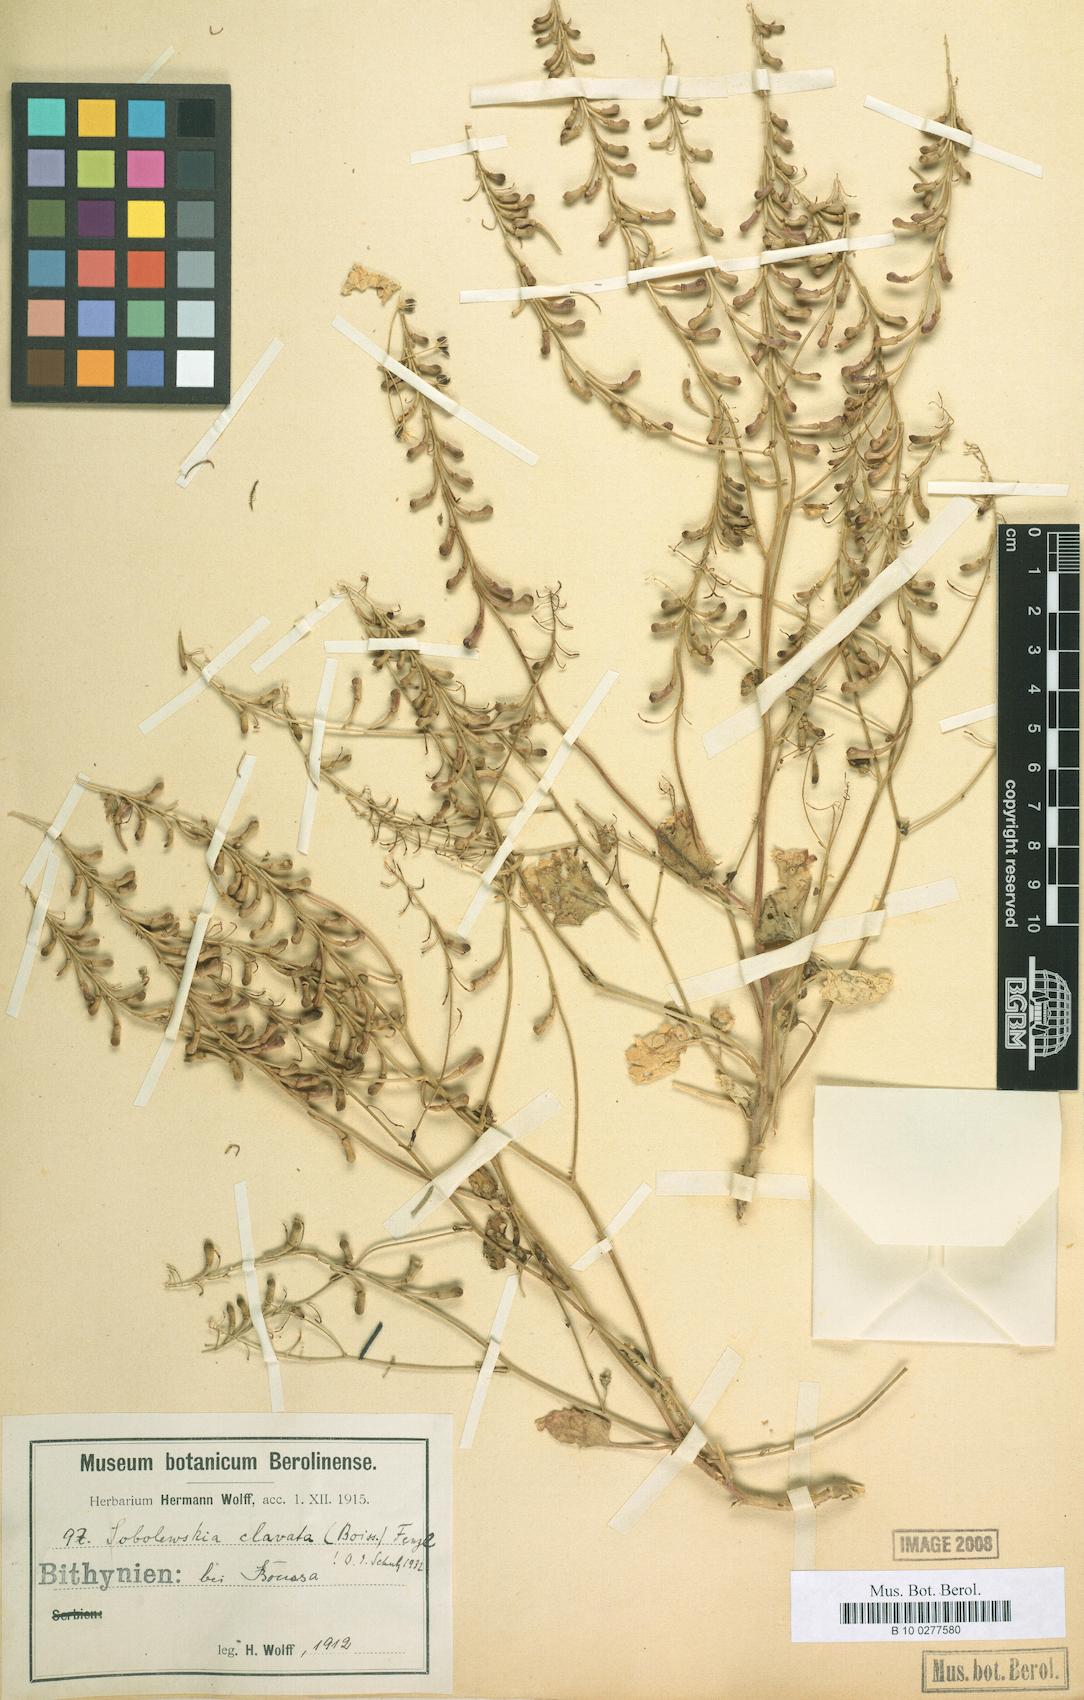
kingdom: Plantae
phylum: Tracheophyta
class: Magnoliopsida
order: Brassicales
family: Brassicaceae
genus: Sobolewskia
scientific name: Sobolewskia clavata
